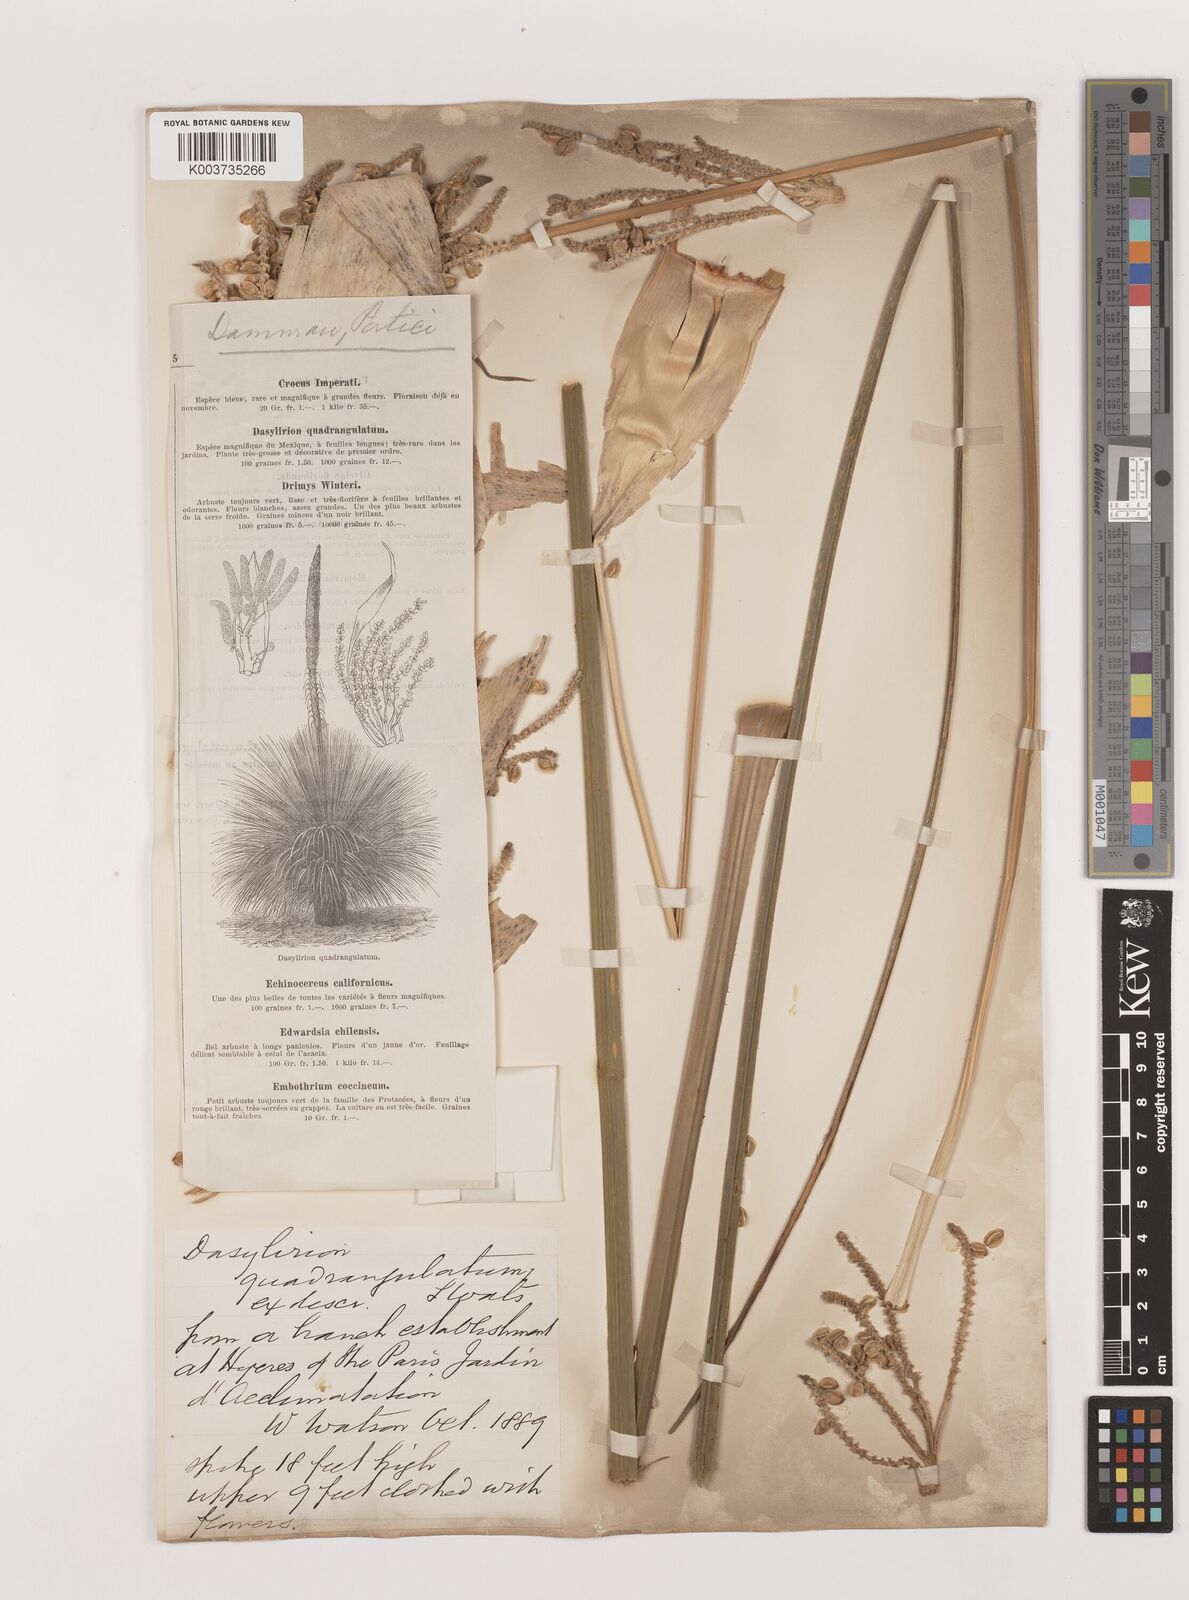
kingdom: Plantae
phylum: Tracheophyta
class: Liliopsida
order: Asparagales
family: Asparagaceae
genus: Dasylirion
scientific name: Dasylirion longissimum
